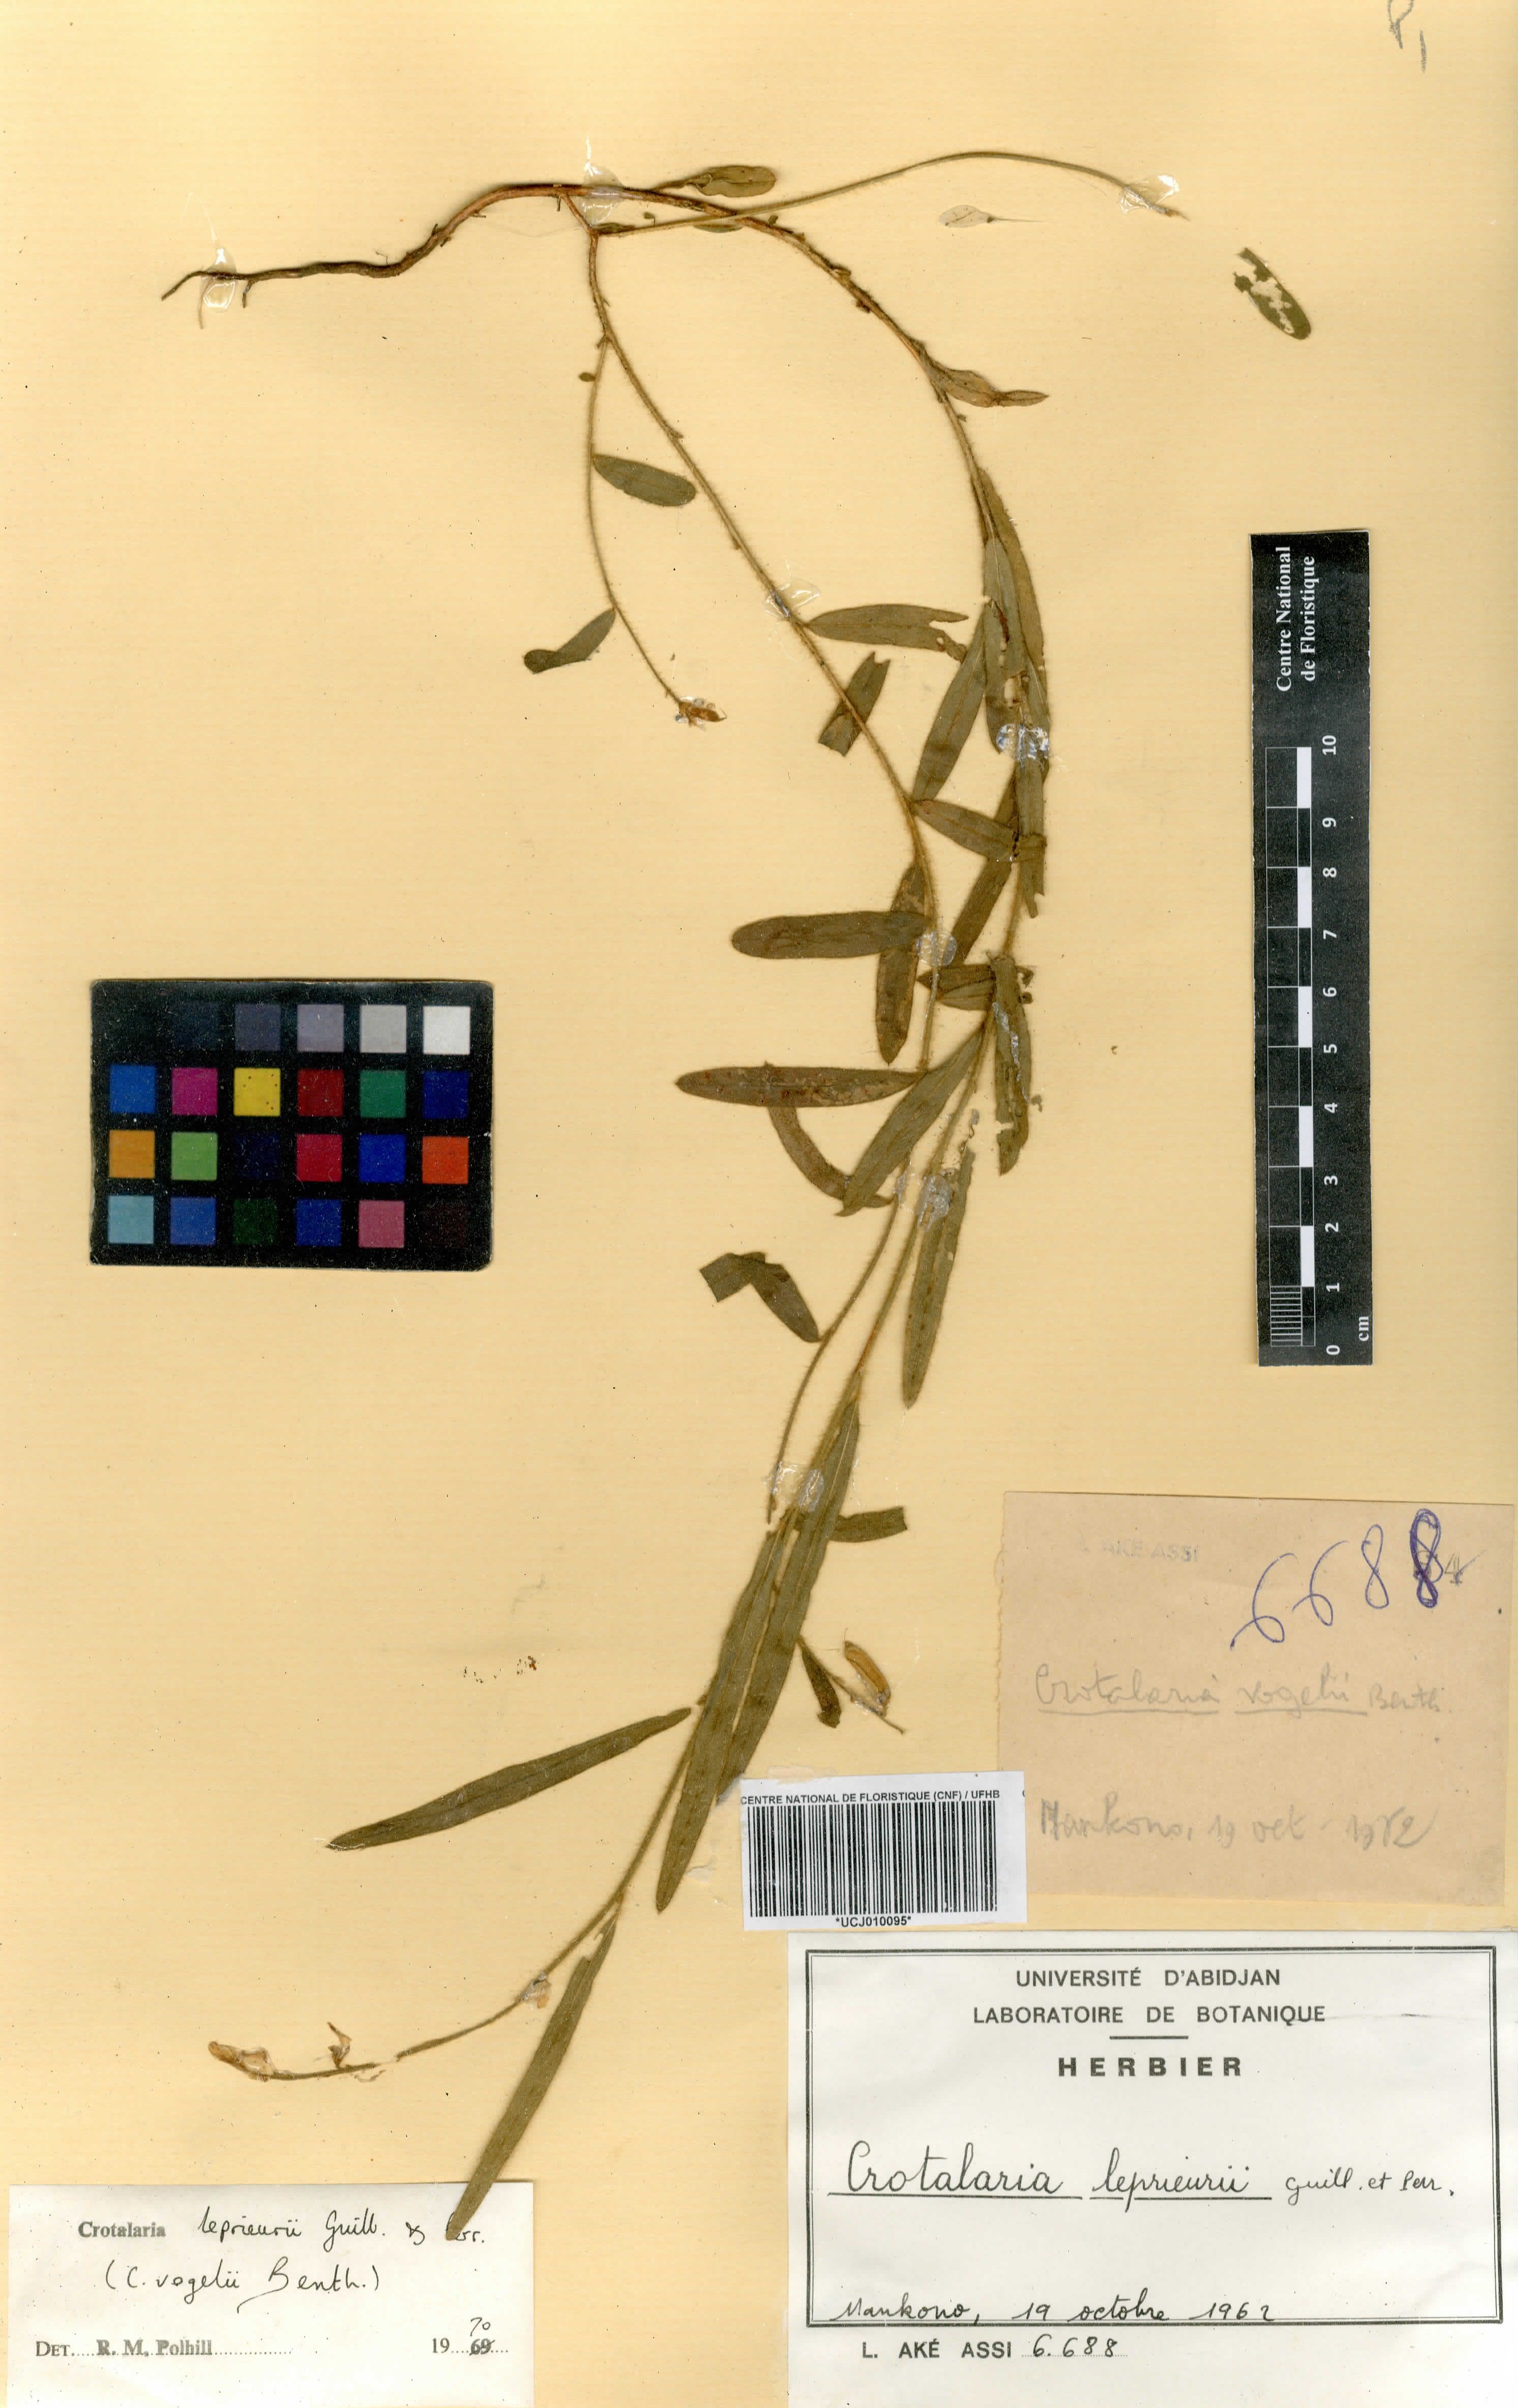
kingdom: Plantae
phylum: Tracheophyta
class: Magnoliopsida
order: Fabales
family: Fabaceae
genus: Crotalaria
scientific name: Crotalaria leprieurii
